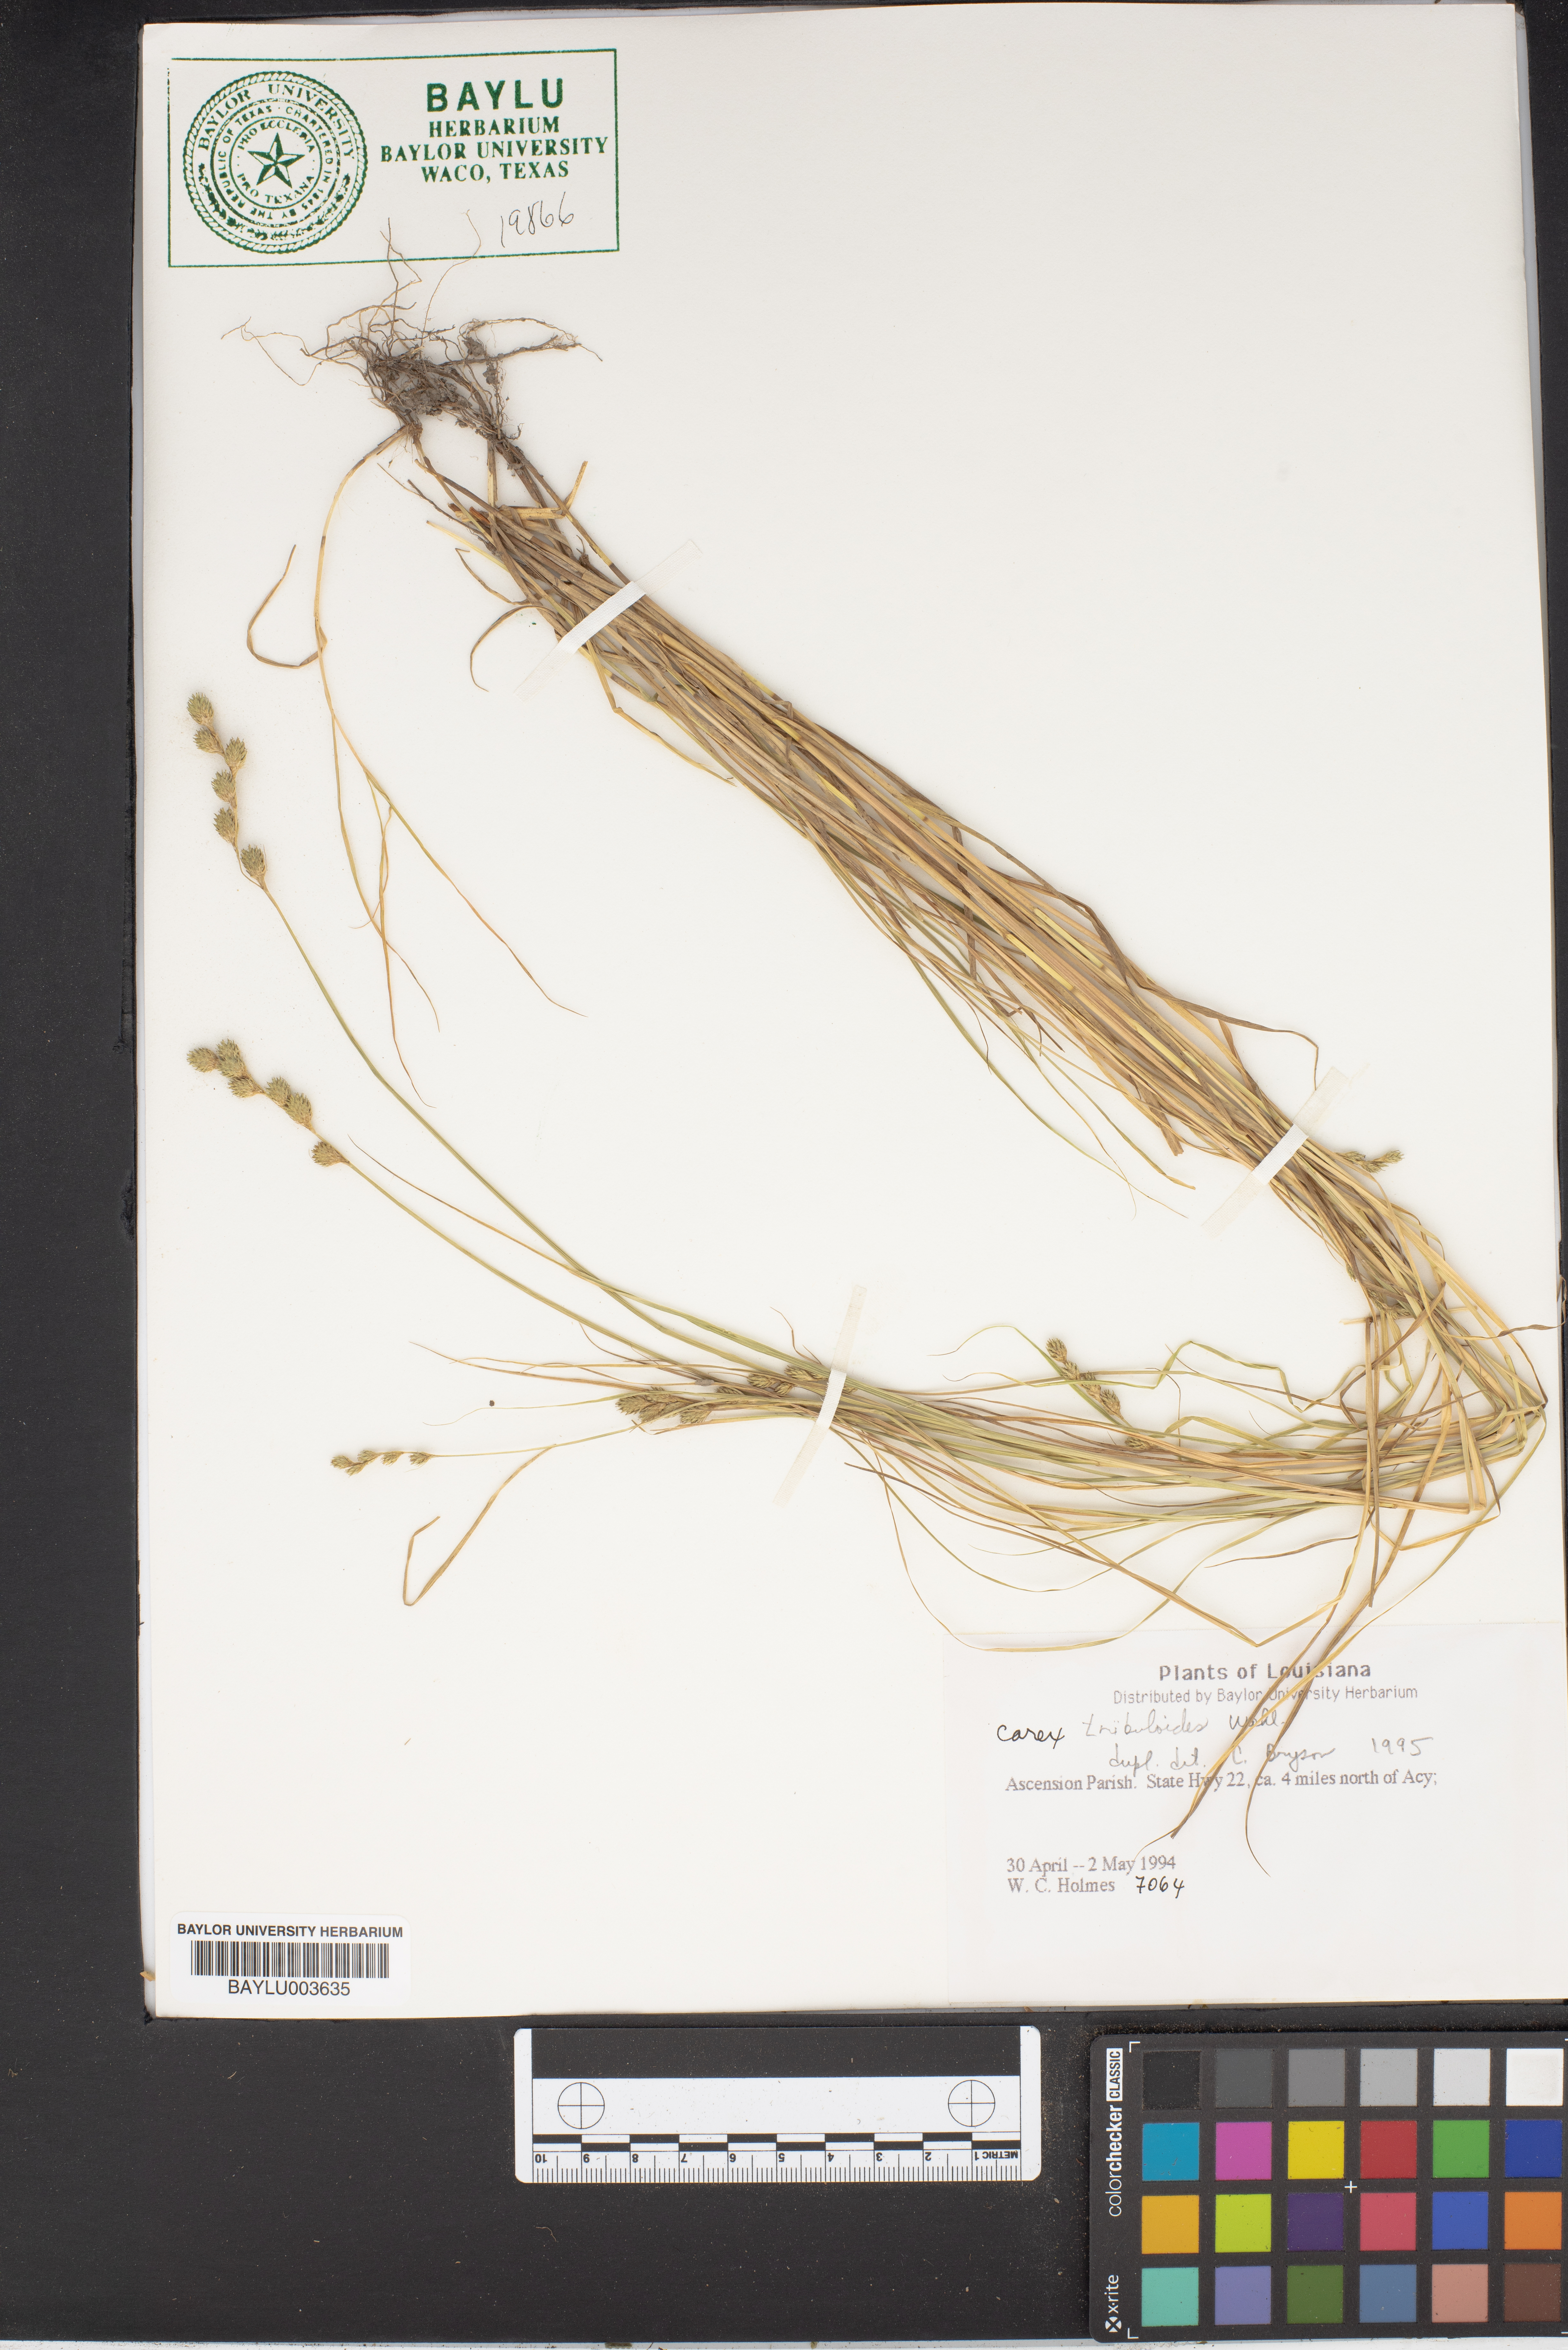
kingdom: Plantae
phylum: Tracheophyta
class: Liliopsida
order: Poales
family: Cyperaceae
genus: Carex
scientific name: Carex tribuloides
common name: Blunt broom sedge
